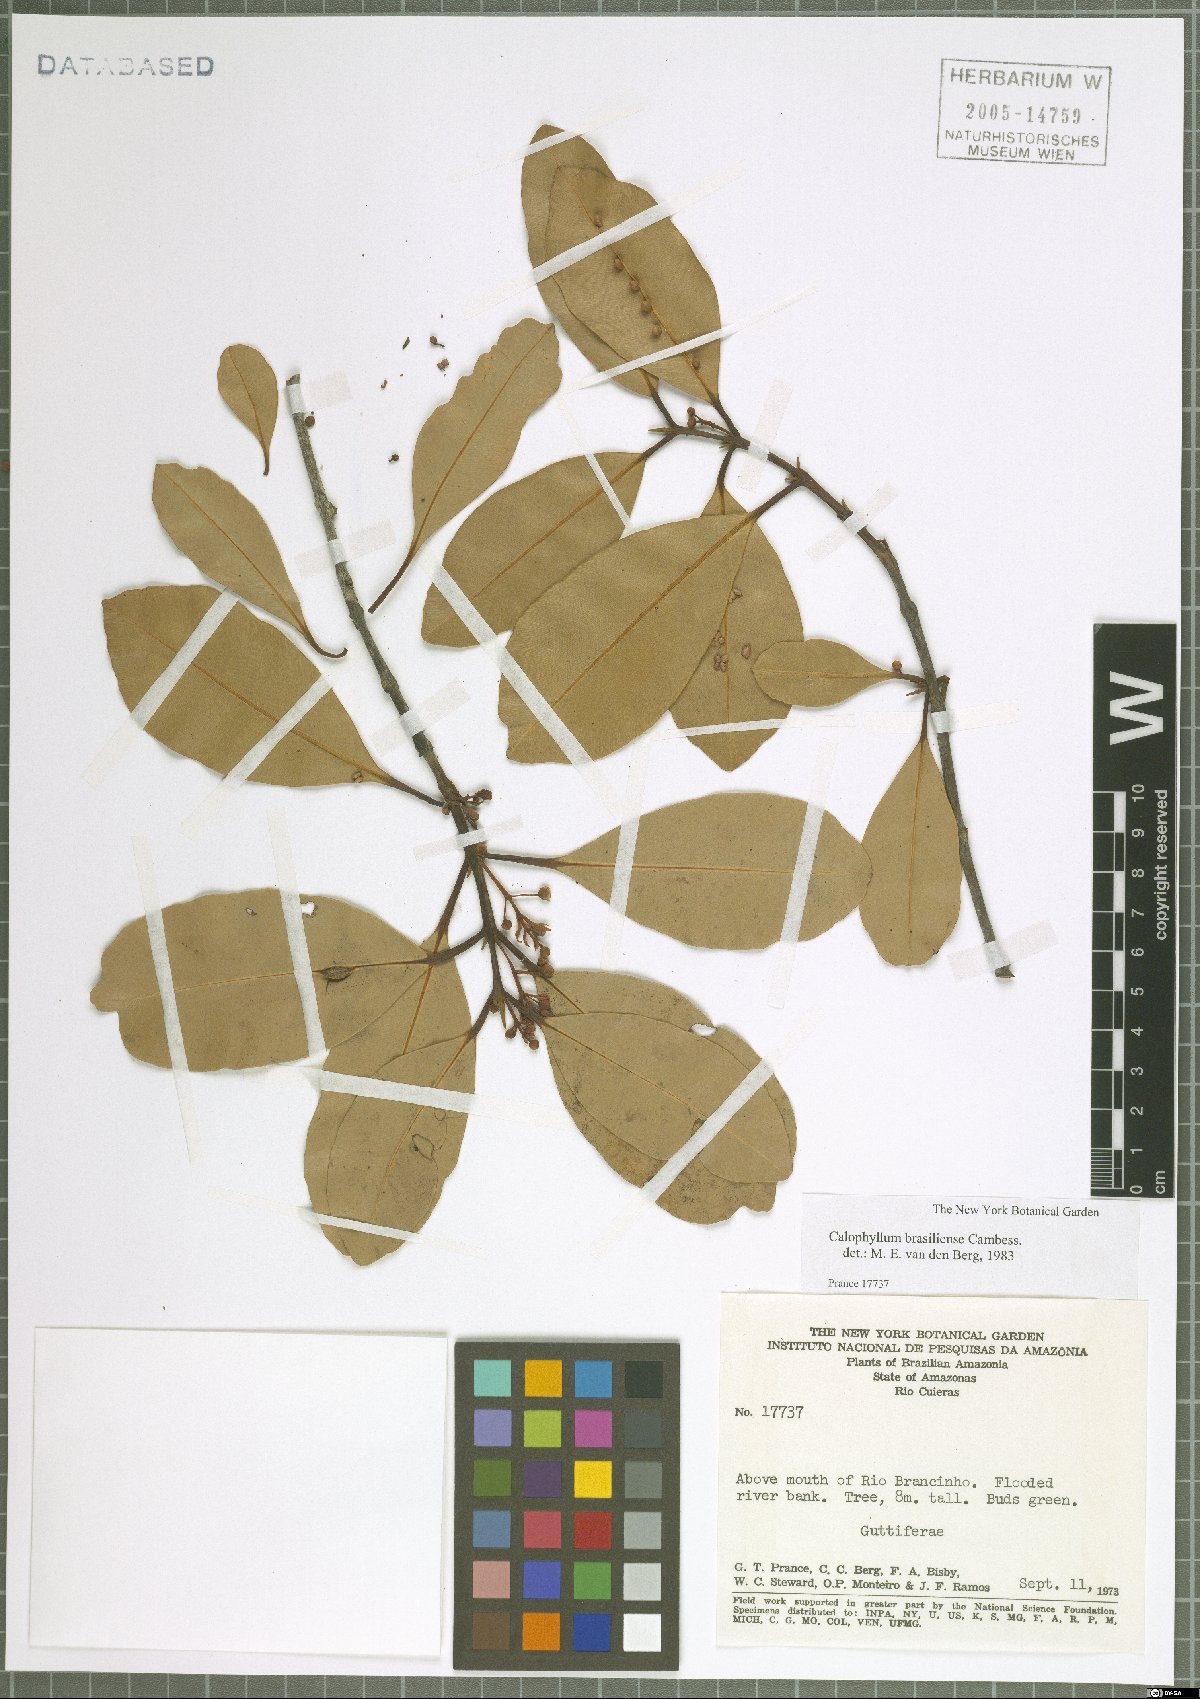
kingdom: Plantae
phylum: Tracheophyta
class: Magnoliopsida
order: Malpighiales
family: Calophyllaceae
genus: Calophyllum
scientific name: Calophyllum brasiliense
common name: Santa maria
